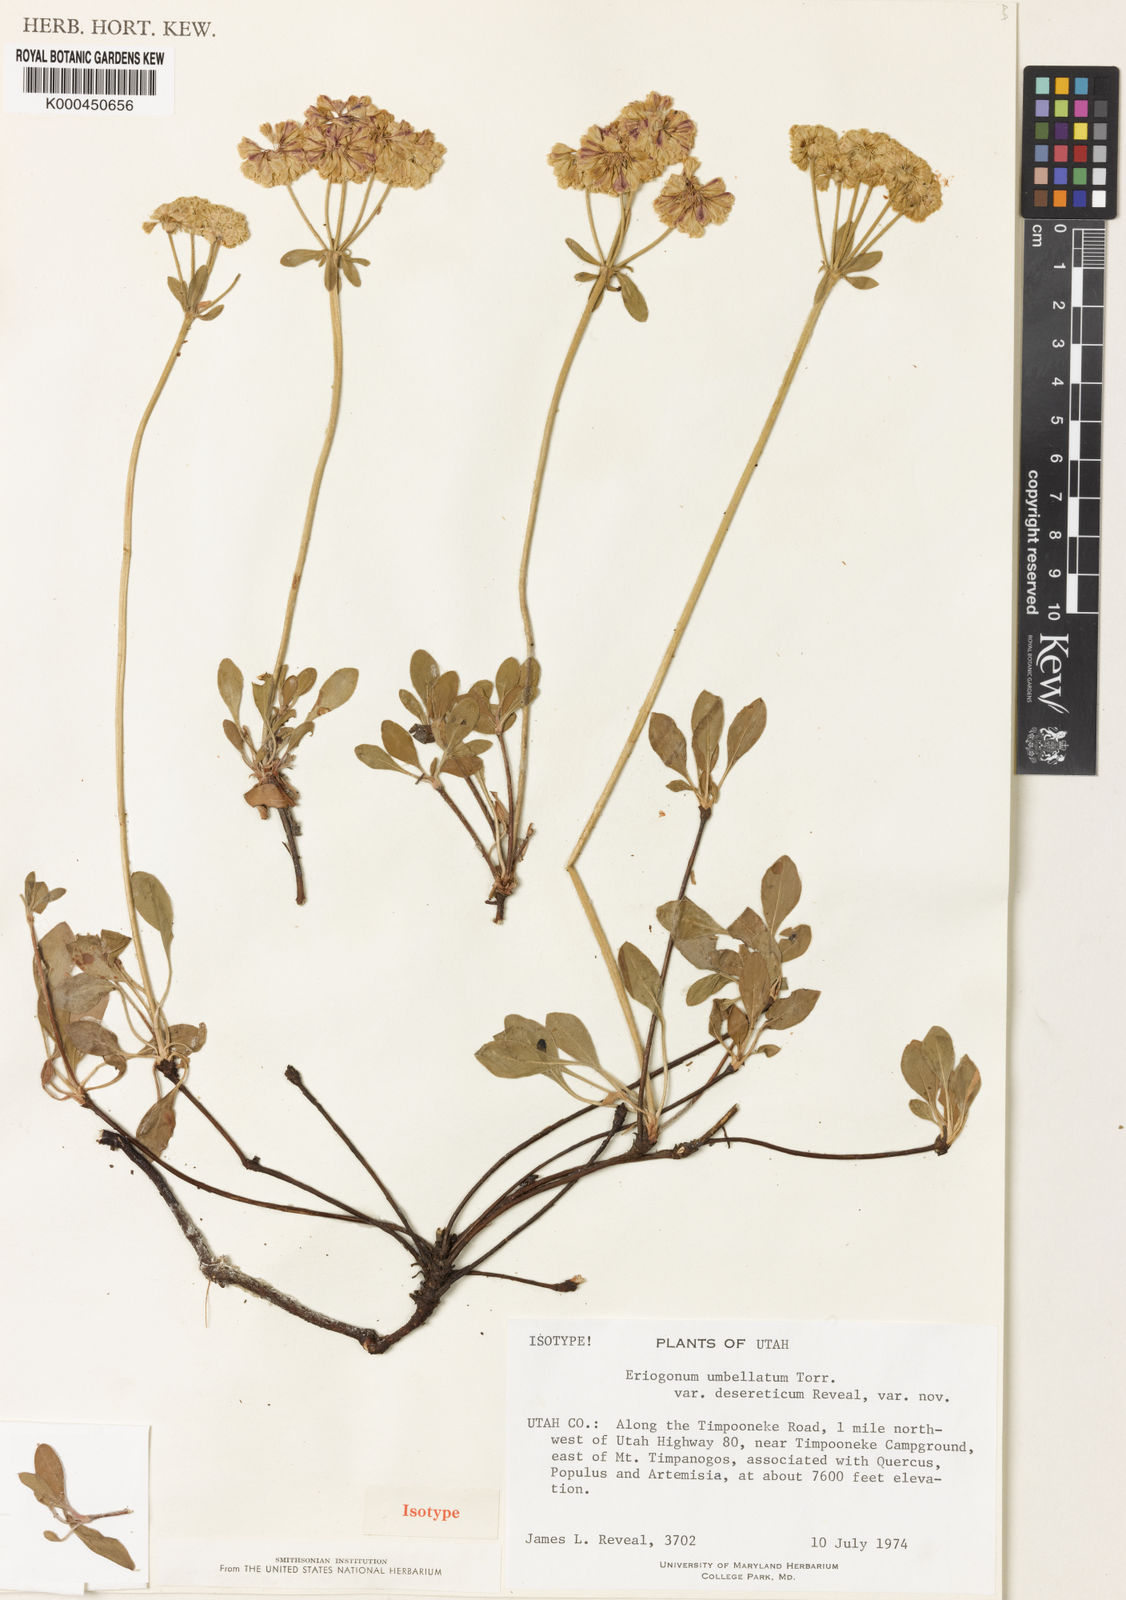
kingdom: Plantae
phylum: Tracheophyta
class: Magnoliopsida
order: Caryophyllales
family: Polygonaceae
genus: Eriogonum
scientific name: Eriogonum umbellatum
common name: Sulfur-buckwheat
